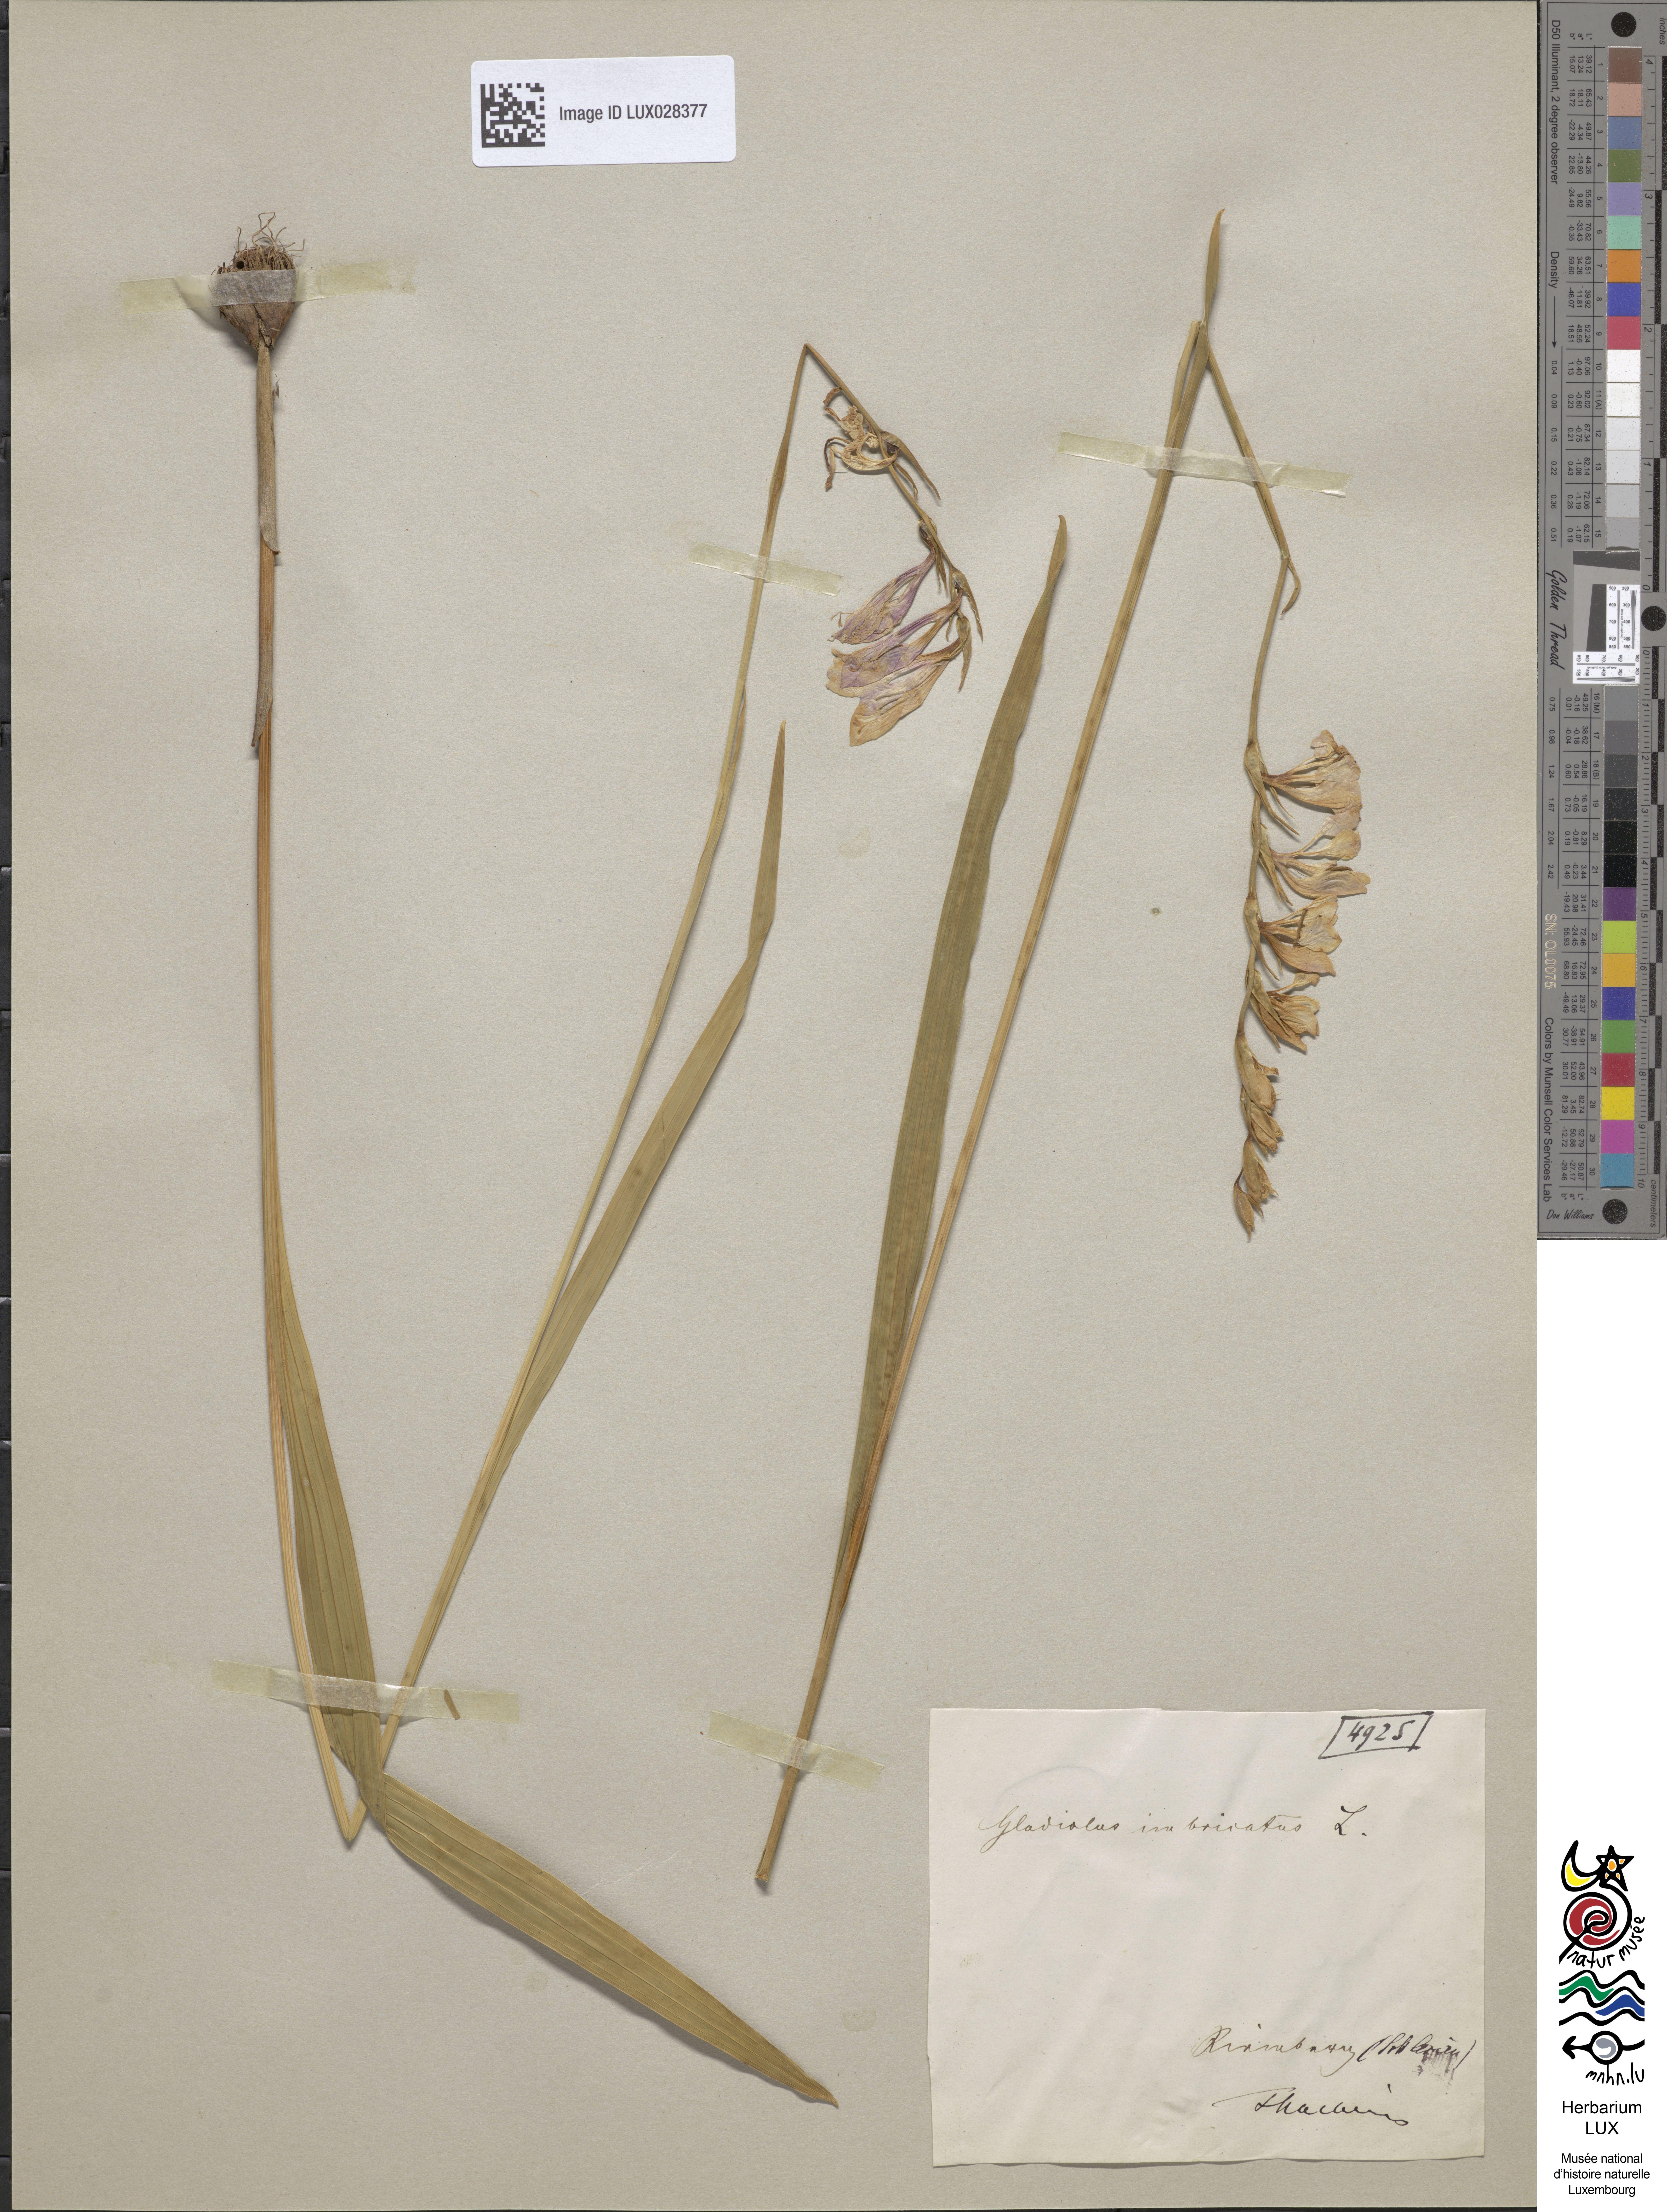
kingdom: Plantae
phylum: Tracheophyta
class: Liliopsida
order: Asparagales
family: Iridaceae
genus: Gladiolus
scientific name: Gladiolus imbricatus
